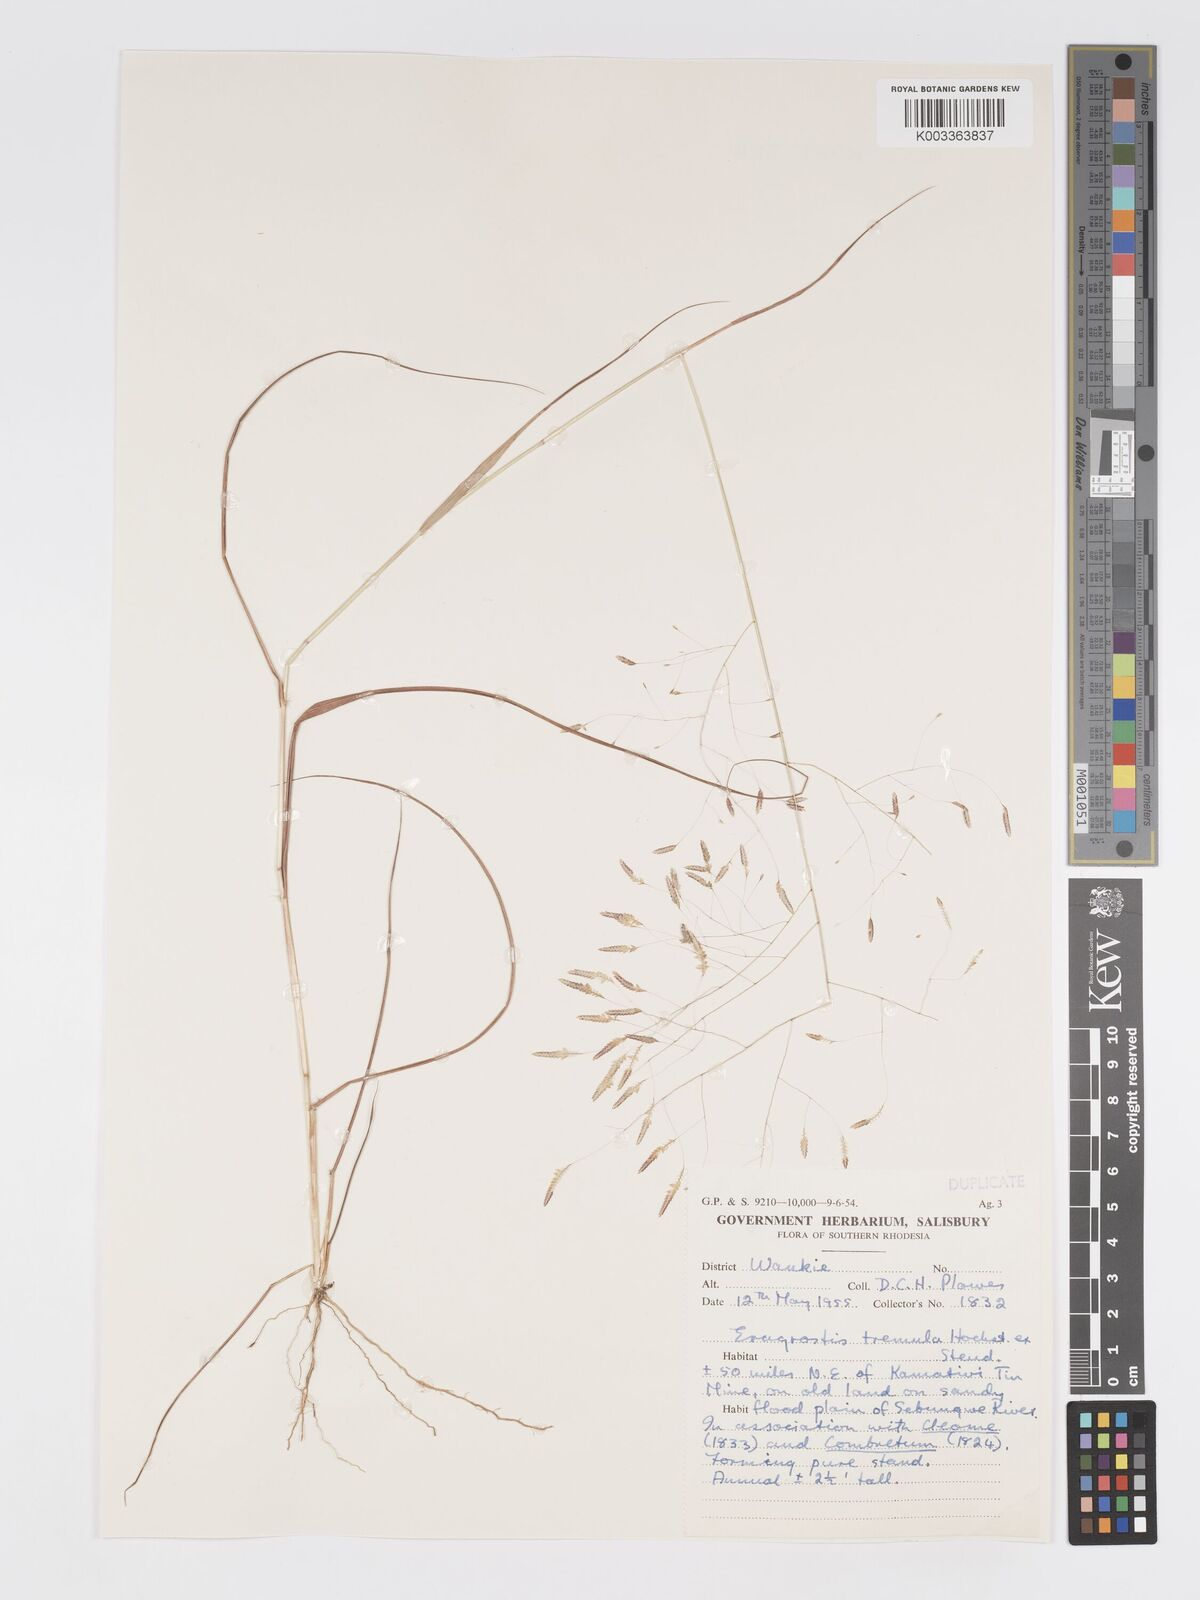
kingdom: Plantae
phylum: Tracheophyta
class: Liliopsida
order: Poales
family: Poaceae
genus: Eragrostis
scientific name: Eragrostis tremula
